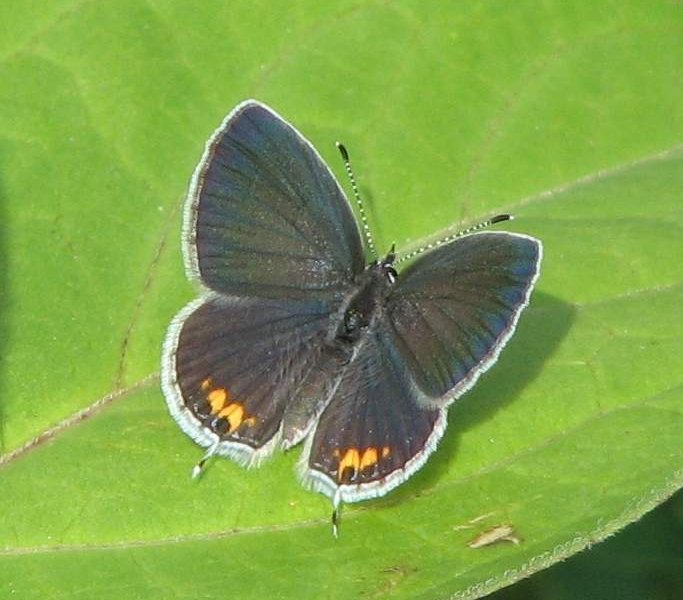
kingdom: Animalia
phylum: Arthropoda
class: Insecta
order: Lepidoptera
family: Lycaenidae
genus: Elkalyce
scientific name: Elkalyce comyntas
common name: Eastern Tailed-Blue
